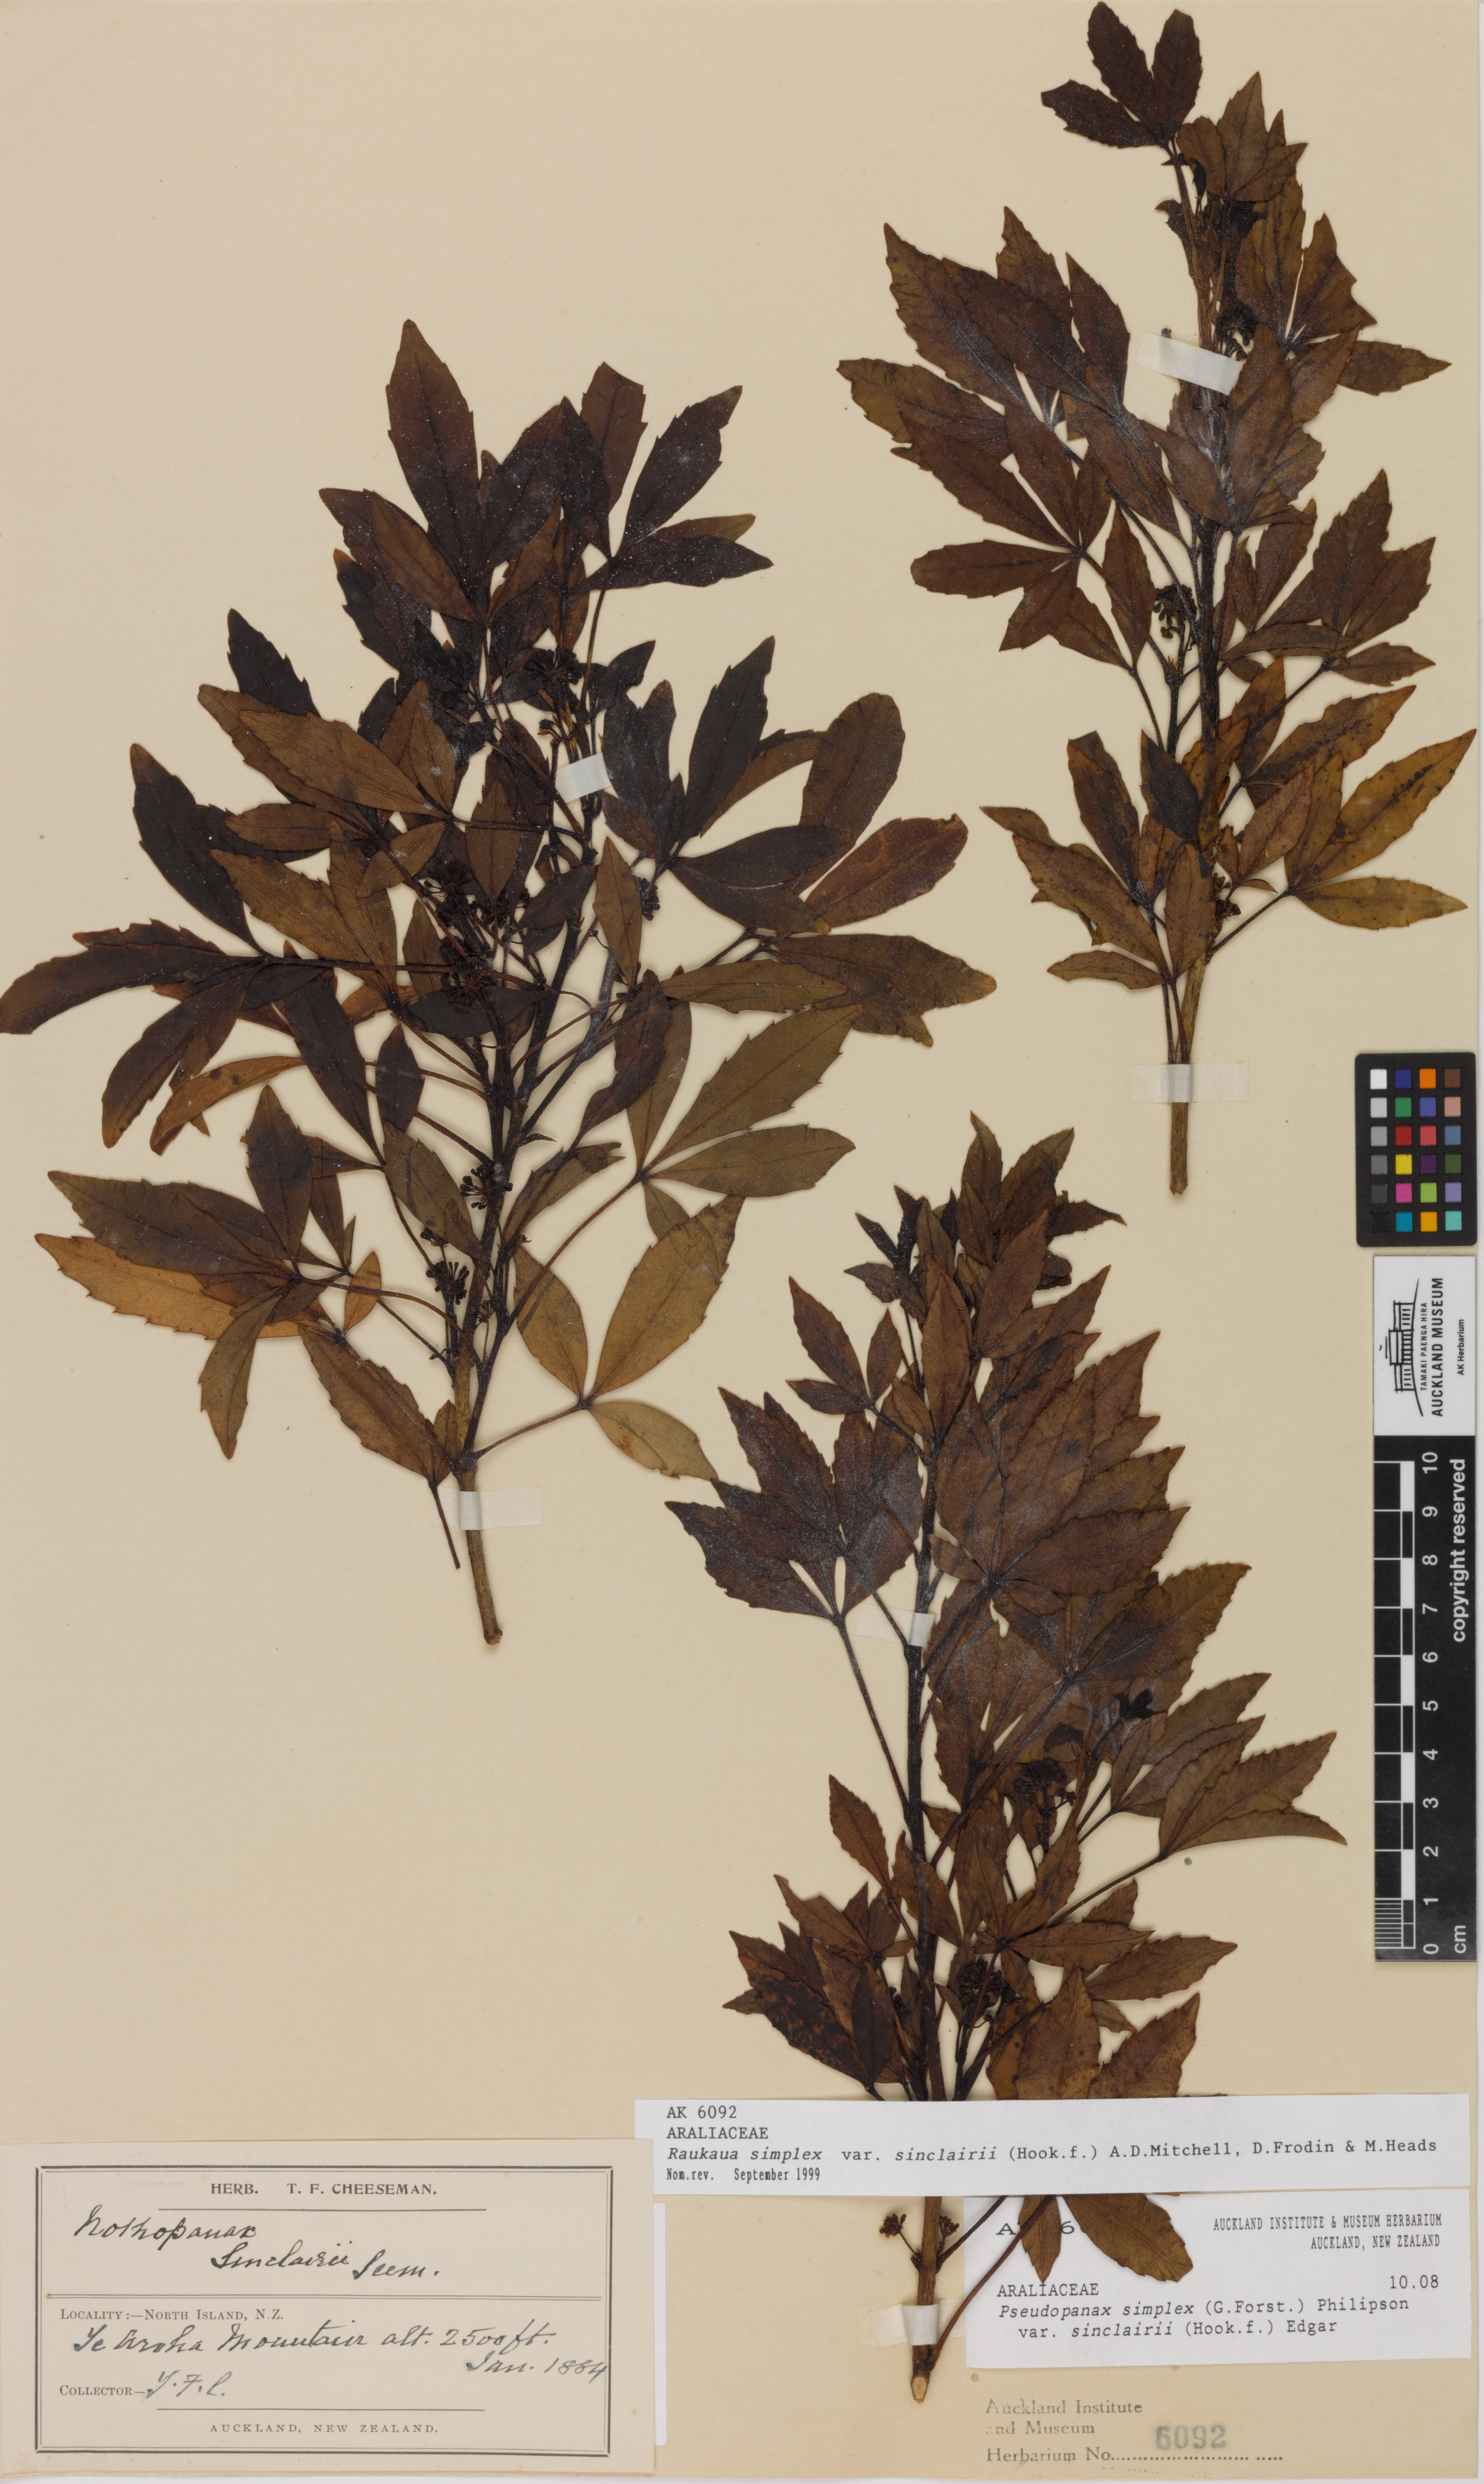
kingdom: Plantae
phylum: Tracheophyta
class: Magnoliopsida
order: Apiales
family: Araliaceae
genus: Raukaua
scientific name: Raukaua simplex
